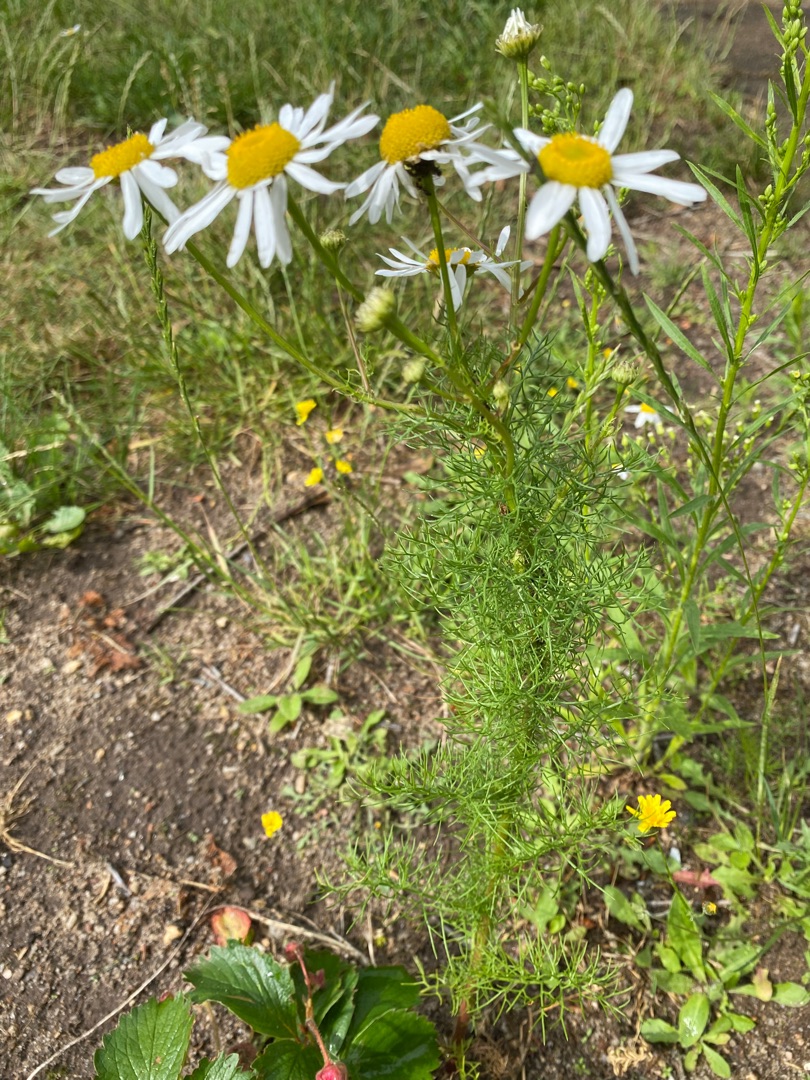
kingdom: Plantae
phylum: Tracheophyta
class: Magnoliopsida
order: Asterales
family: Asteraceae
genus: Tripleurospermum
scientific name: Tripleurospermum inodorum
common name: Lugtløs kamille
